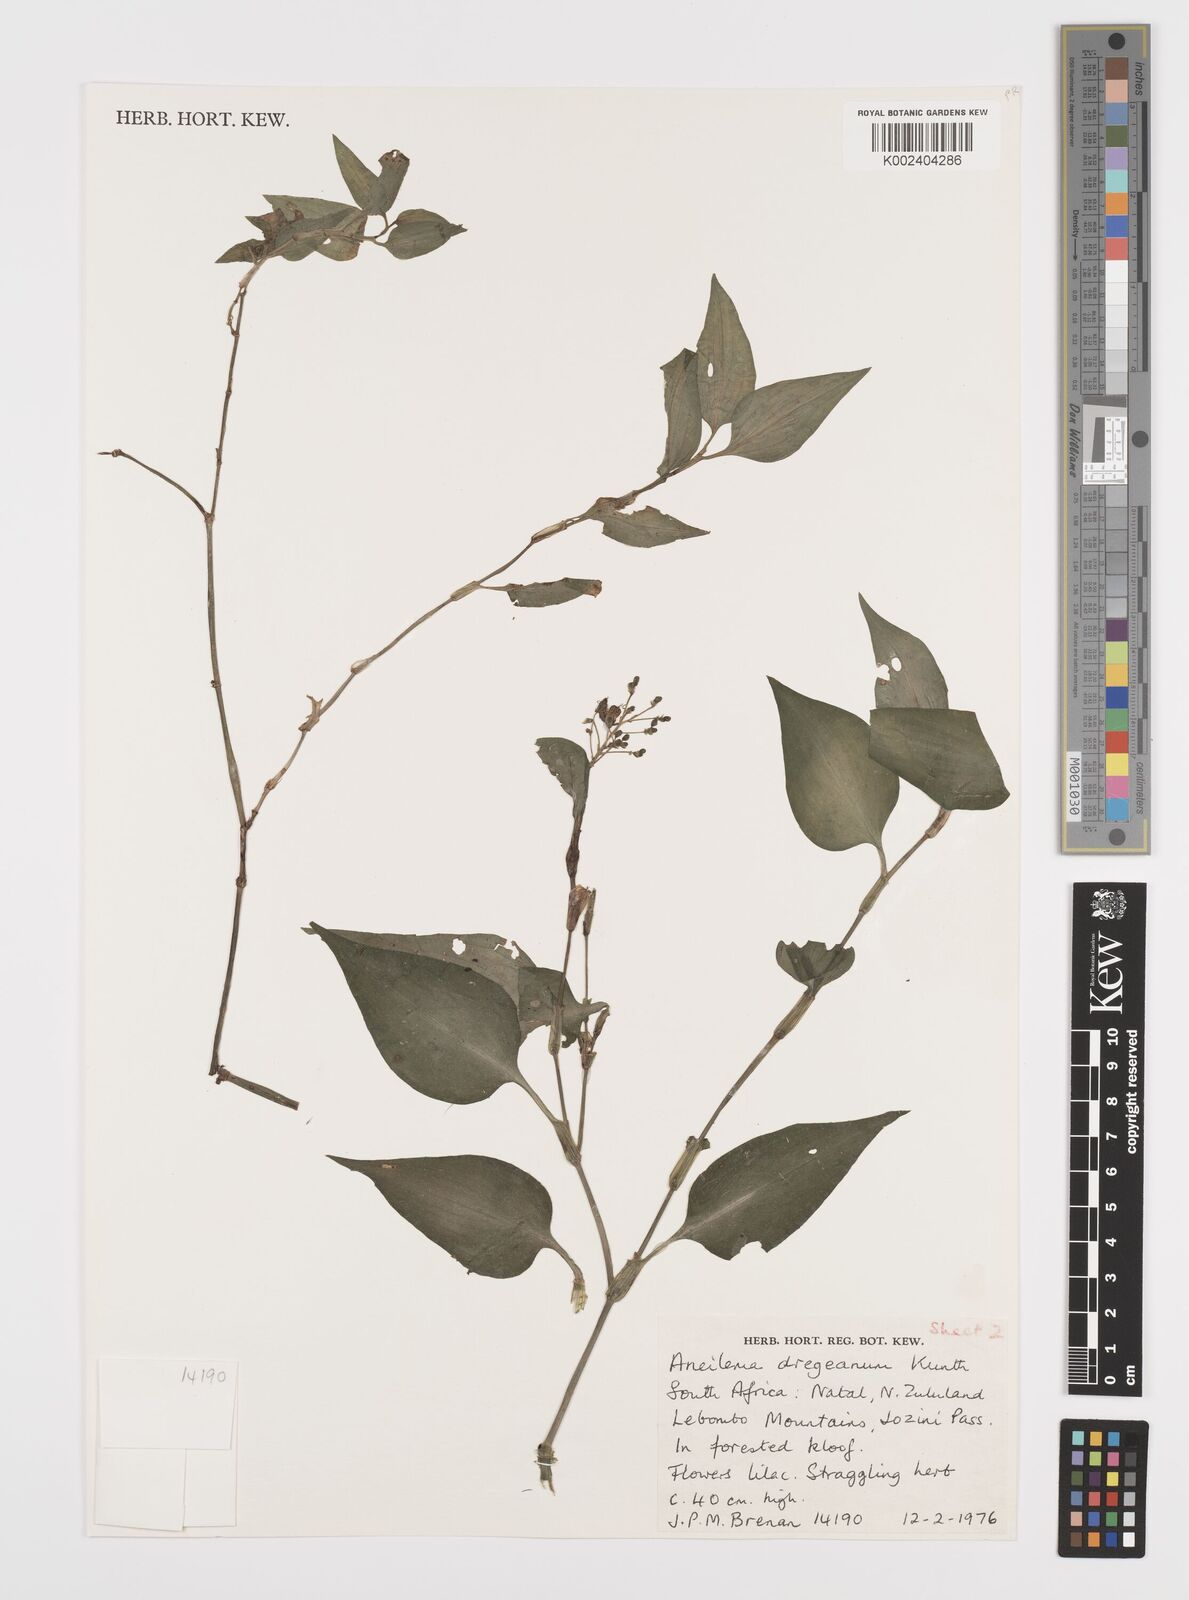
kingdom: Plantae
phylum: Tracheophyta
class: Liliopsida
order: Commelinales
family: Commelinaceae
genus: Aneilema
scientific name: Aneilema dregeanum
